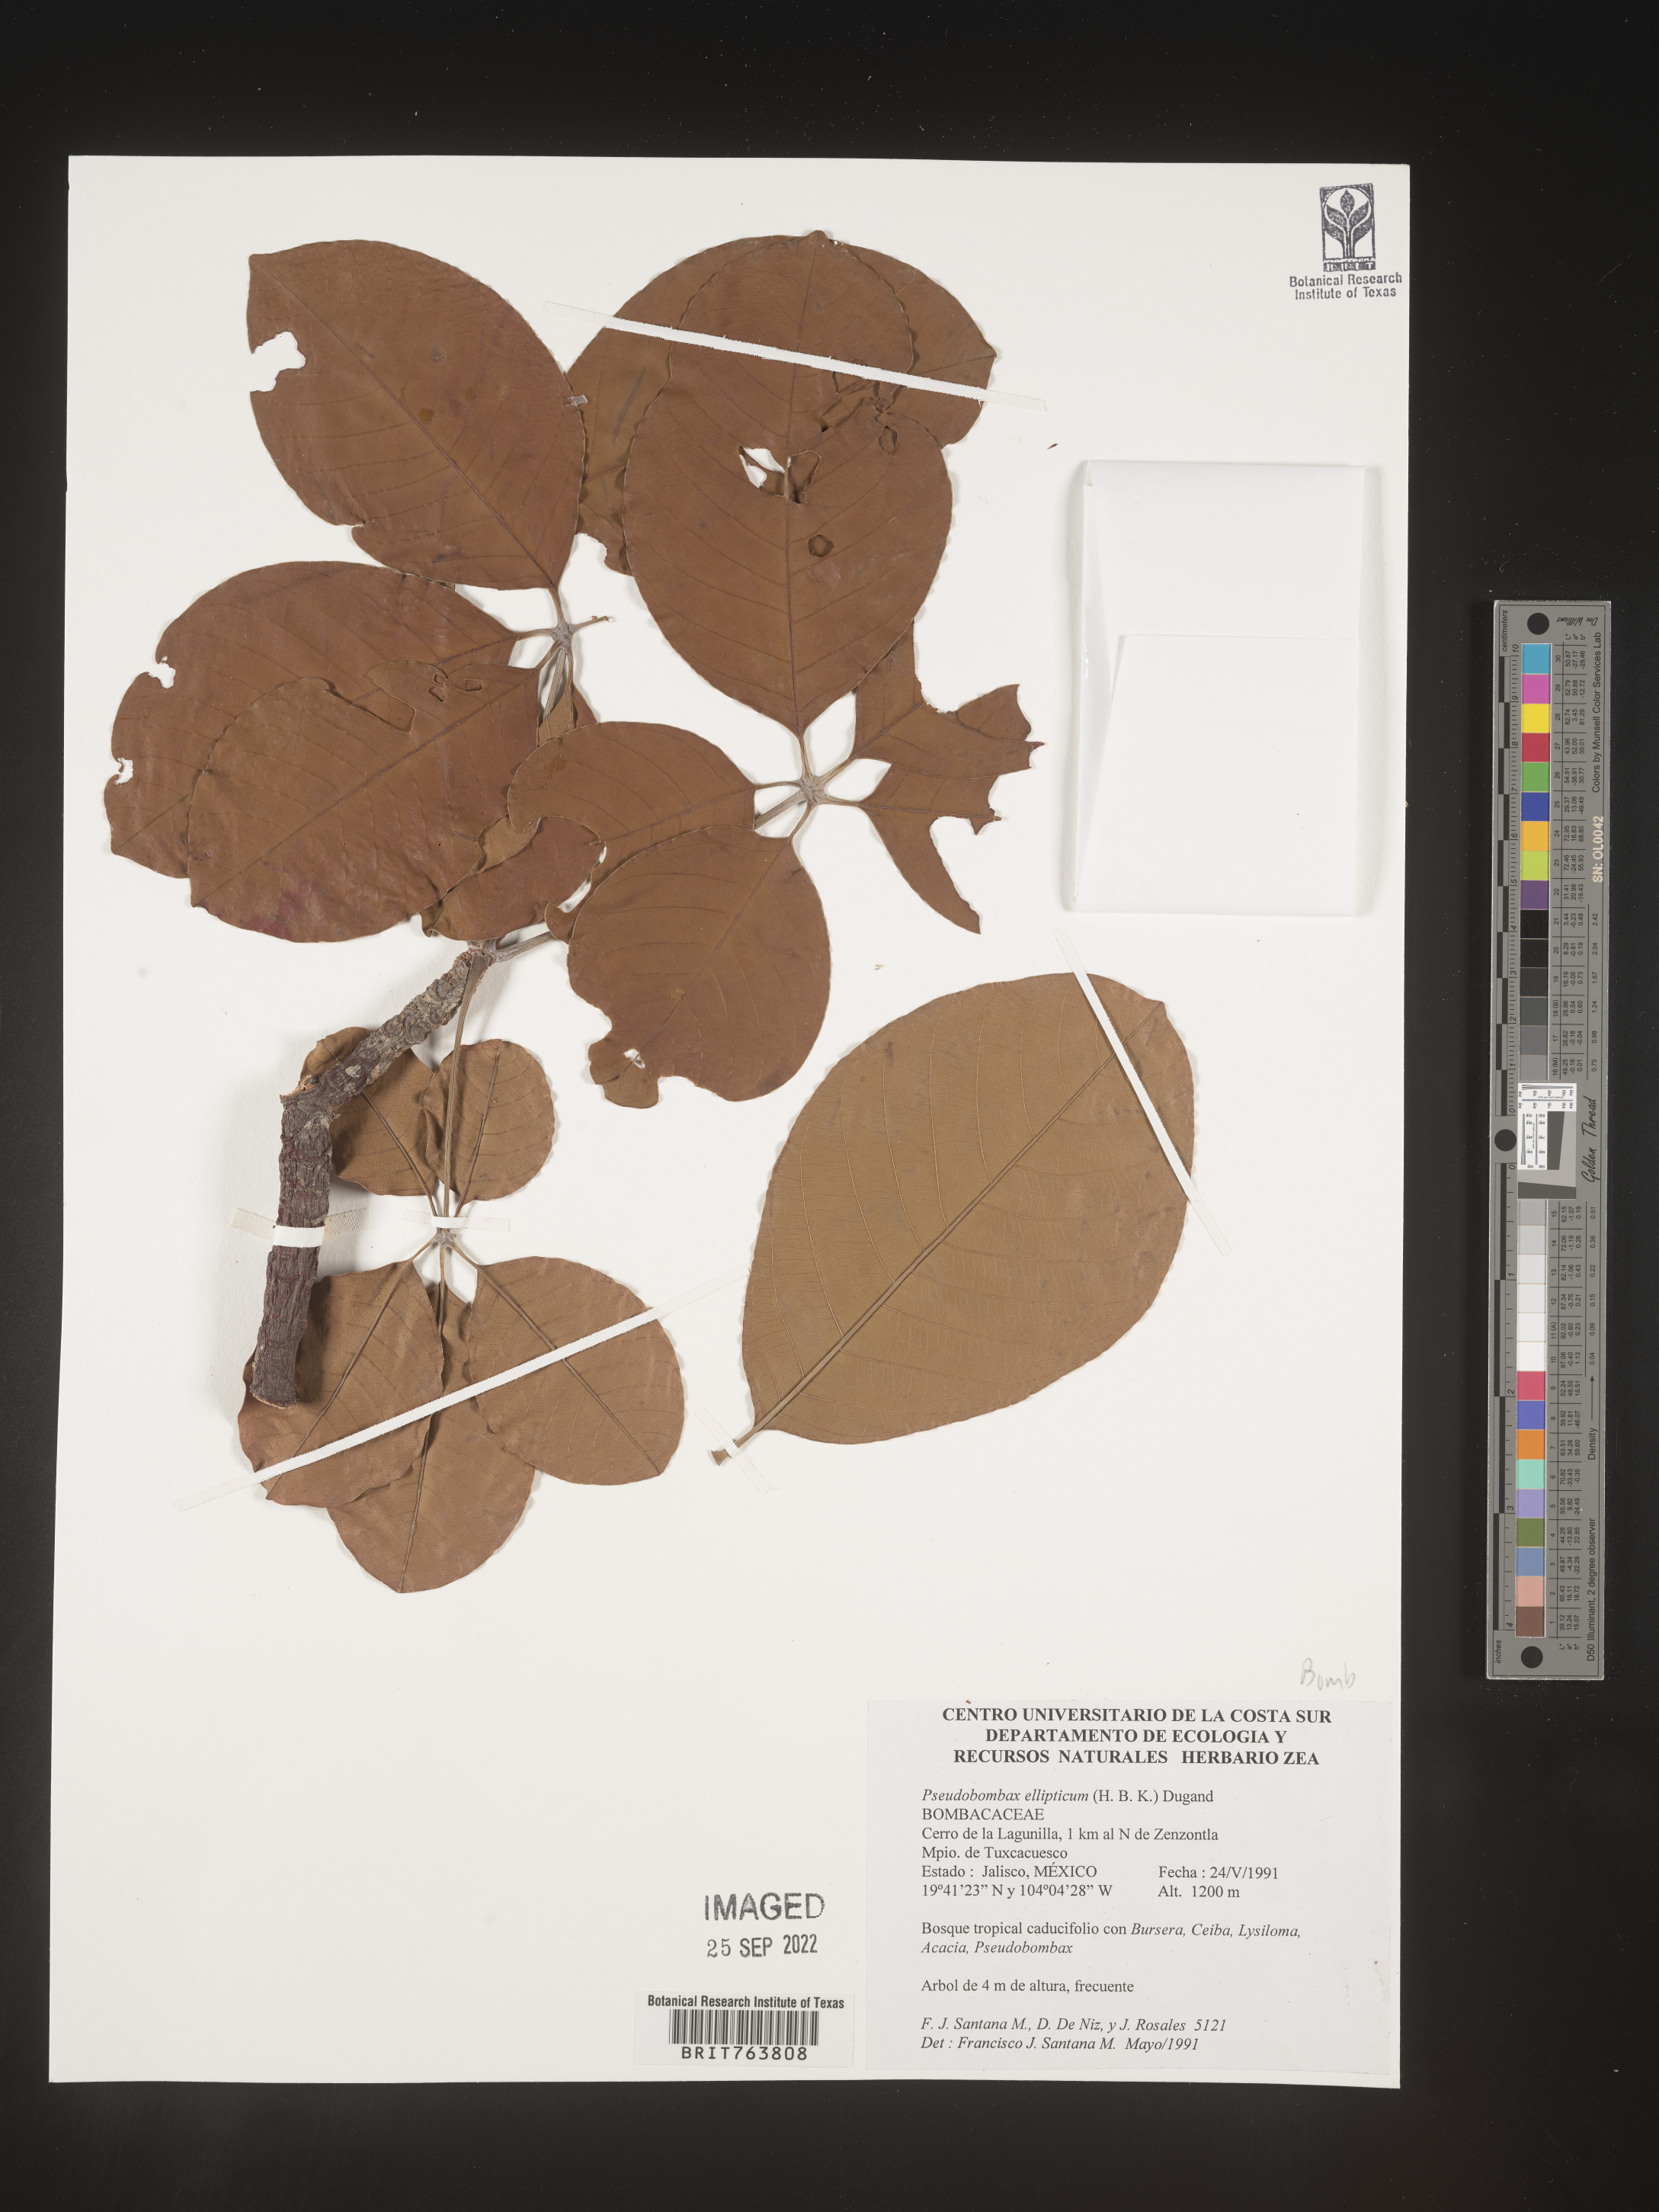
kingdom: Plantae
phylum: Tracheophyta
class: Magnoliopsida
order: Malvales
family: Malvaceae
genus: Pseudobombax
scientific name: Pseudobombax
